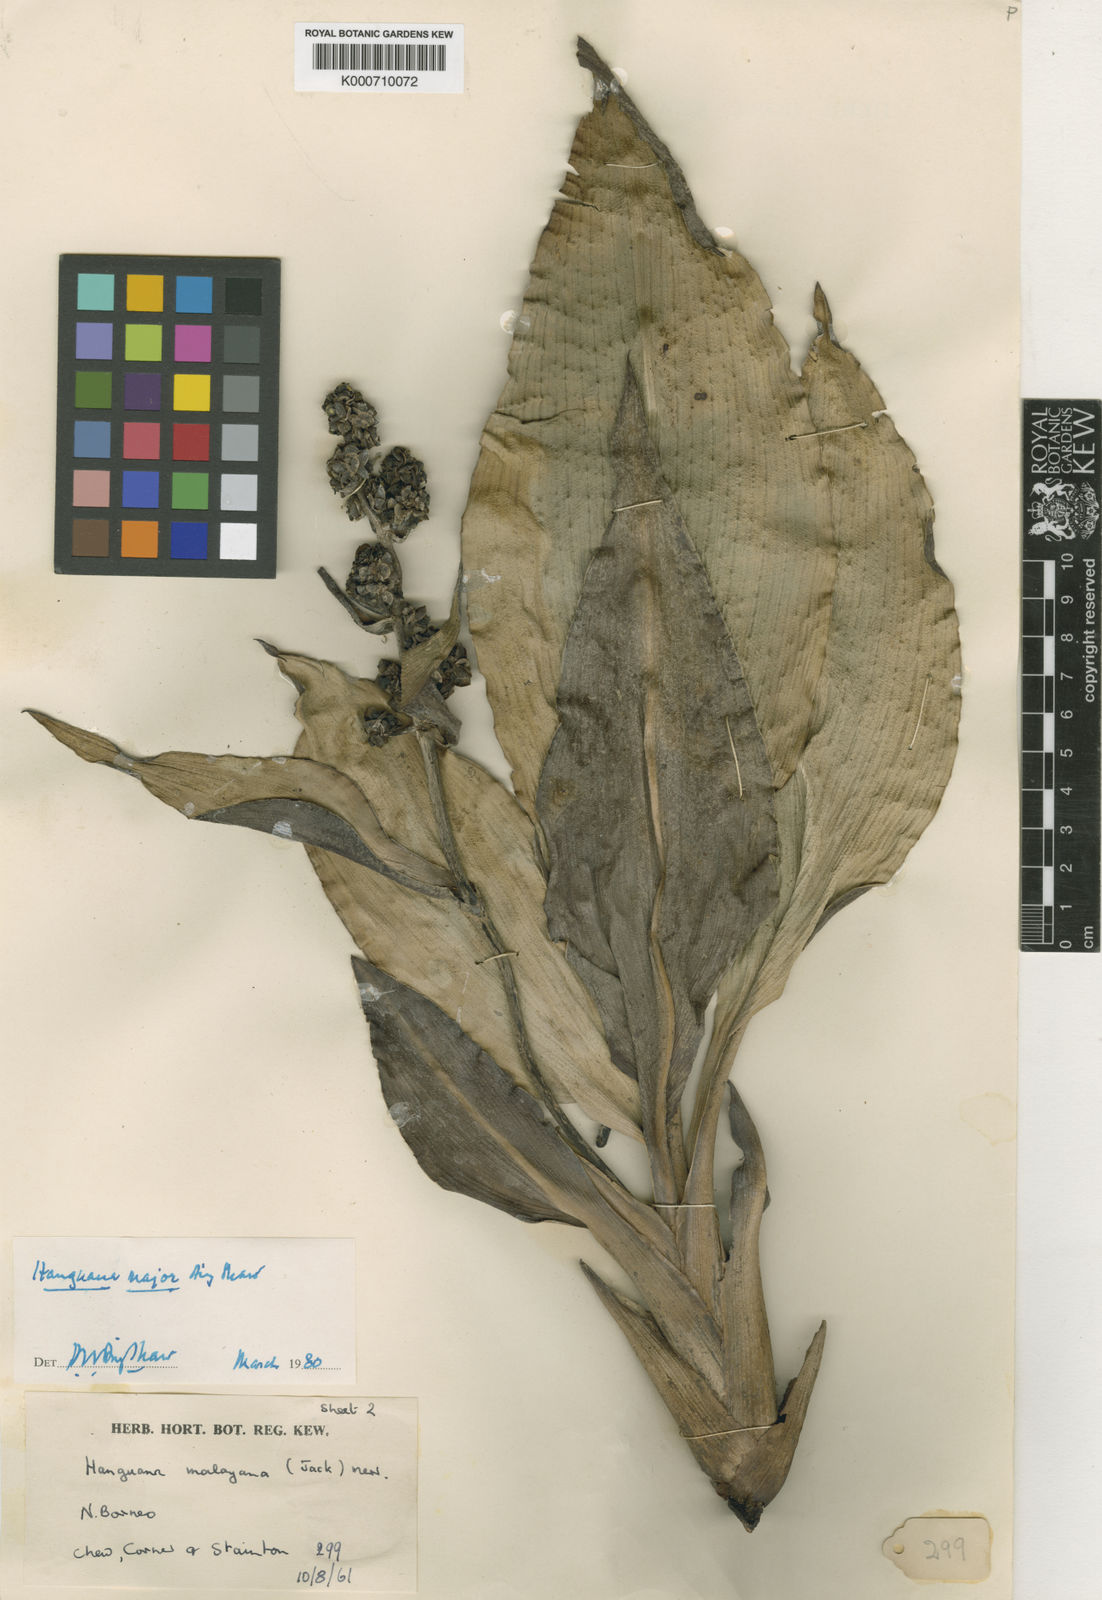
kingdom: Plantae
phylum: Tracheophyta
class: Liliopsida
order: Commelinales
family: Hanguanaceae
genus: Hanguana
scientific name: Hanguana major
